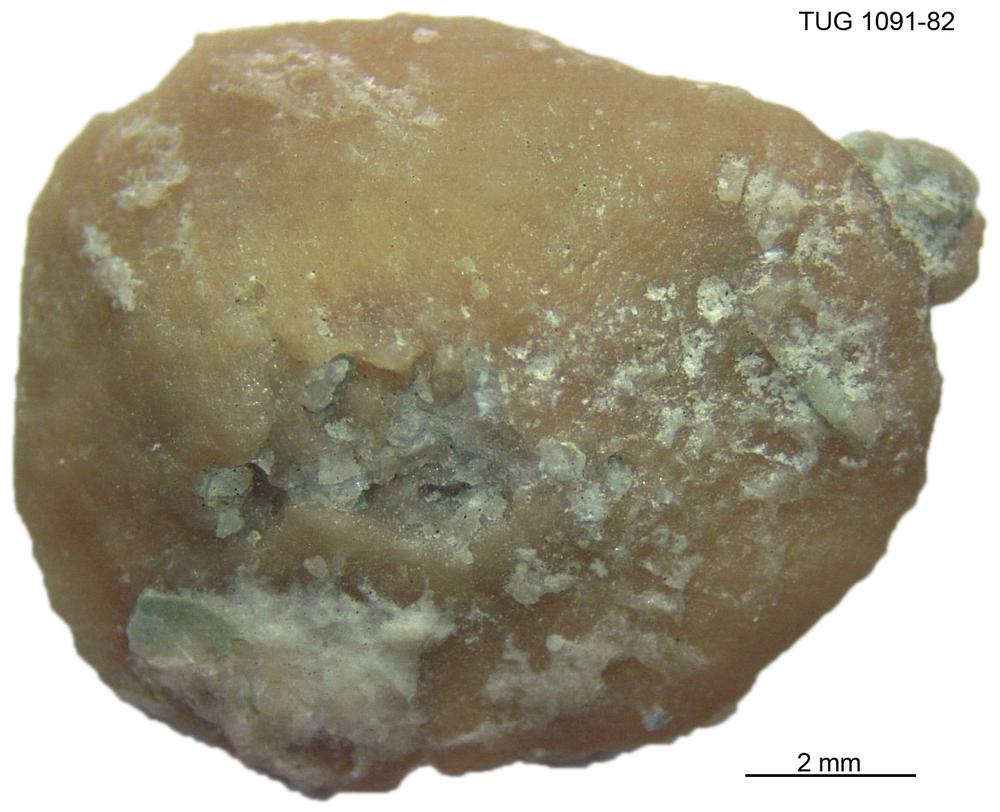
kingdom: Animalia
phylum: Porifera
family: Stromatoporidae
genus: Stromatopora
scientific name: Stromatopora
